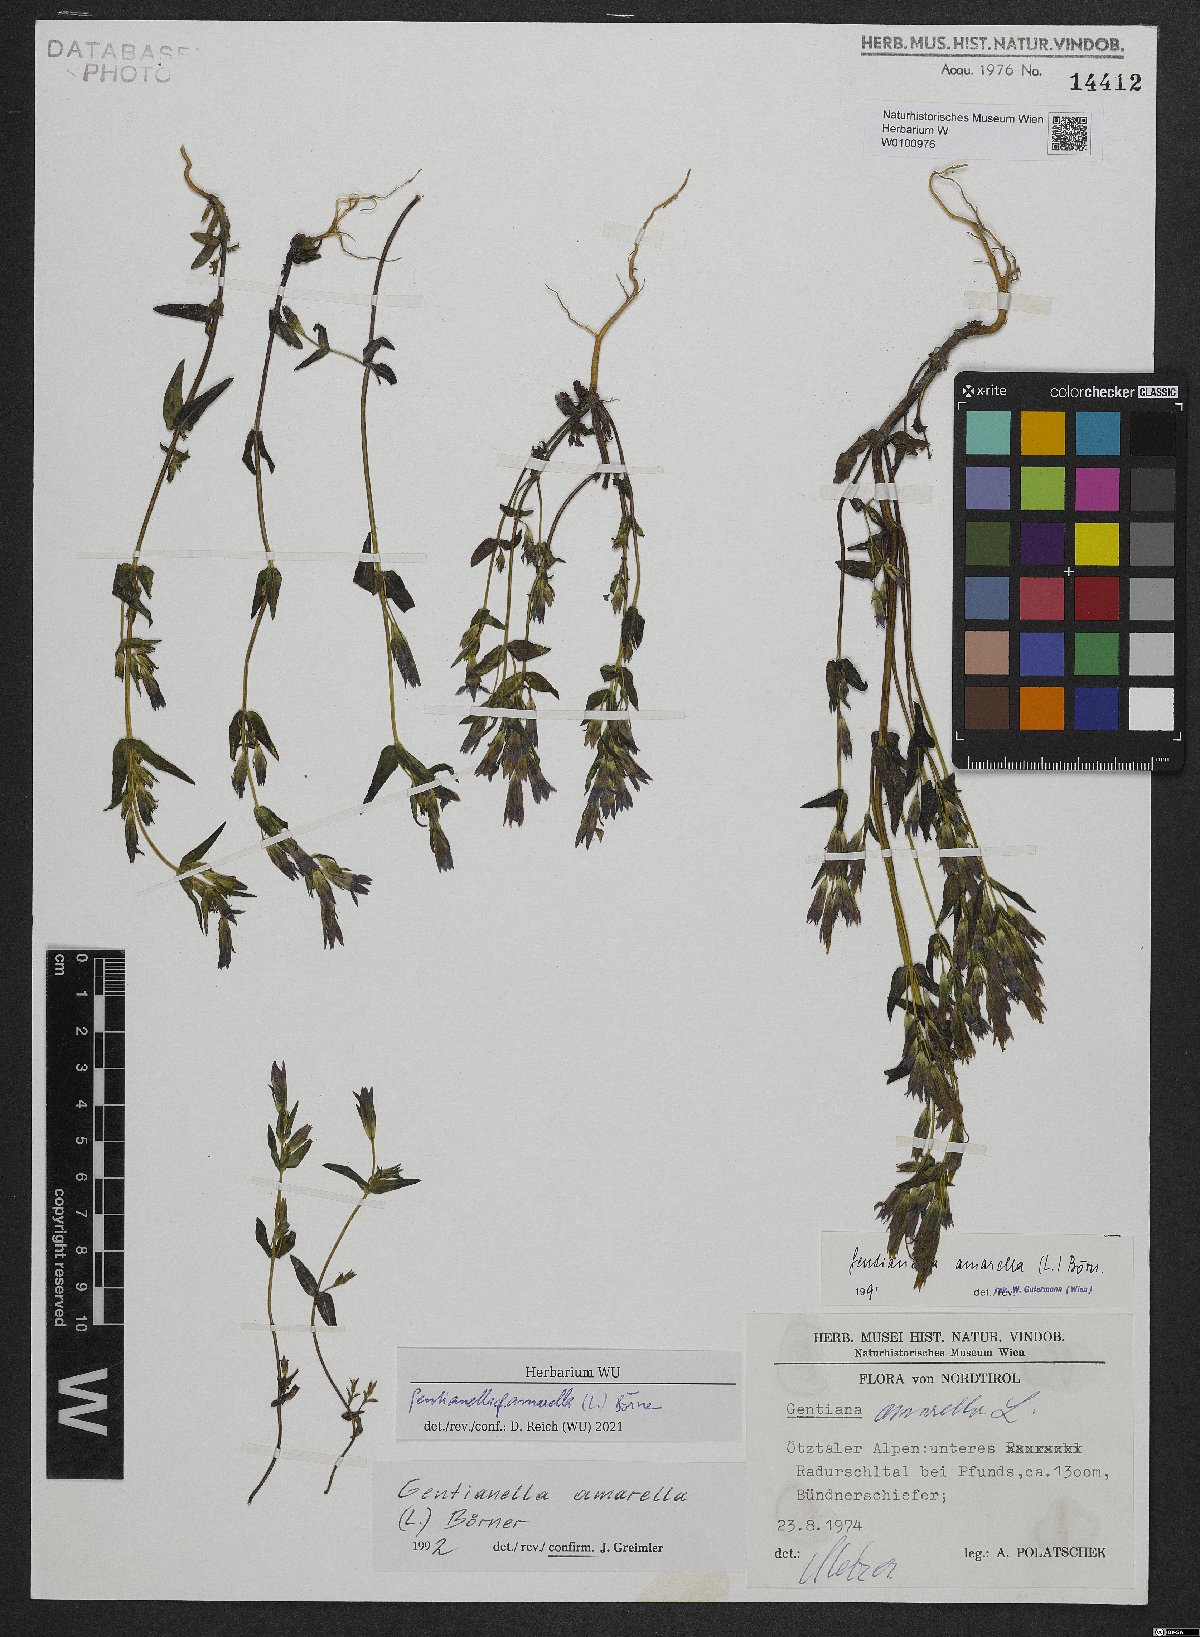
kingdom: Plantae
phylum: Tracheophyta
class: Magnoliopsida
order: Gentianales
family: Gentianaceae
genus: Gentianella
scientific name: Gentianella amarella
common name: Autumn gentian
